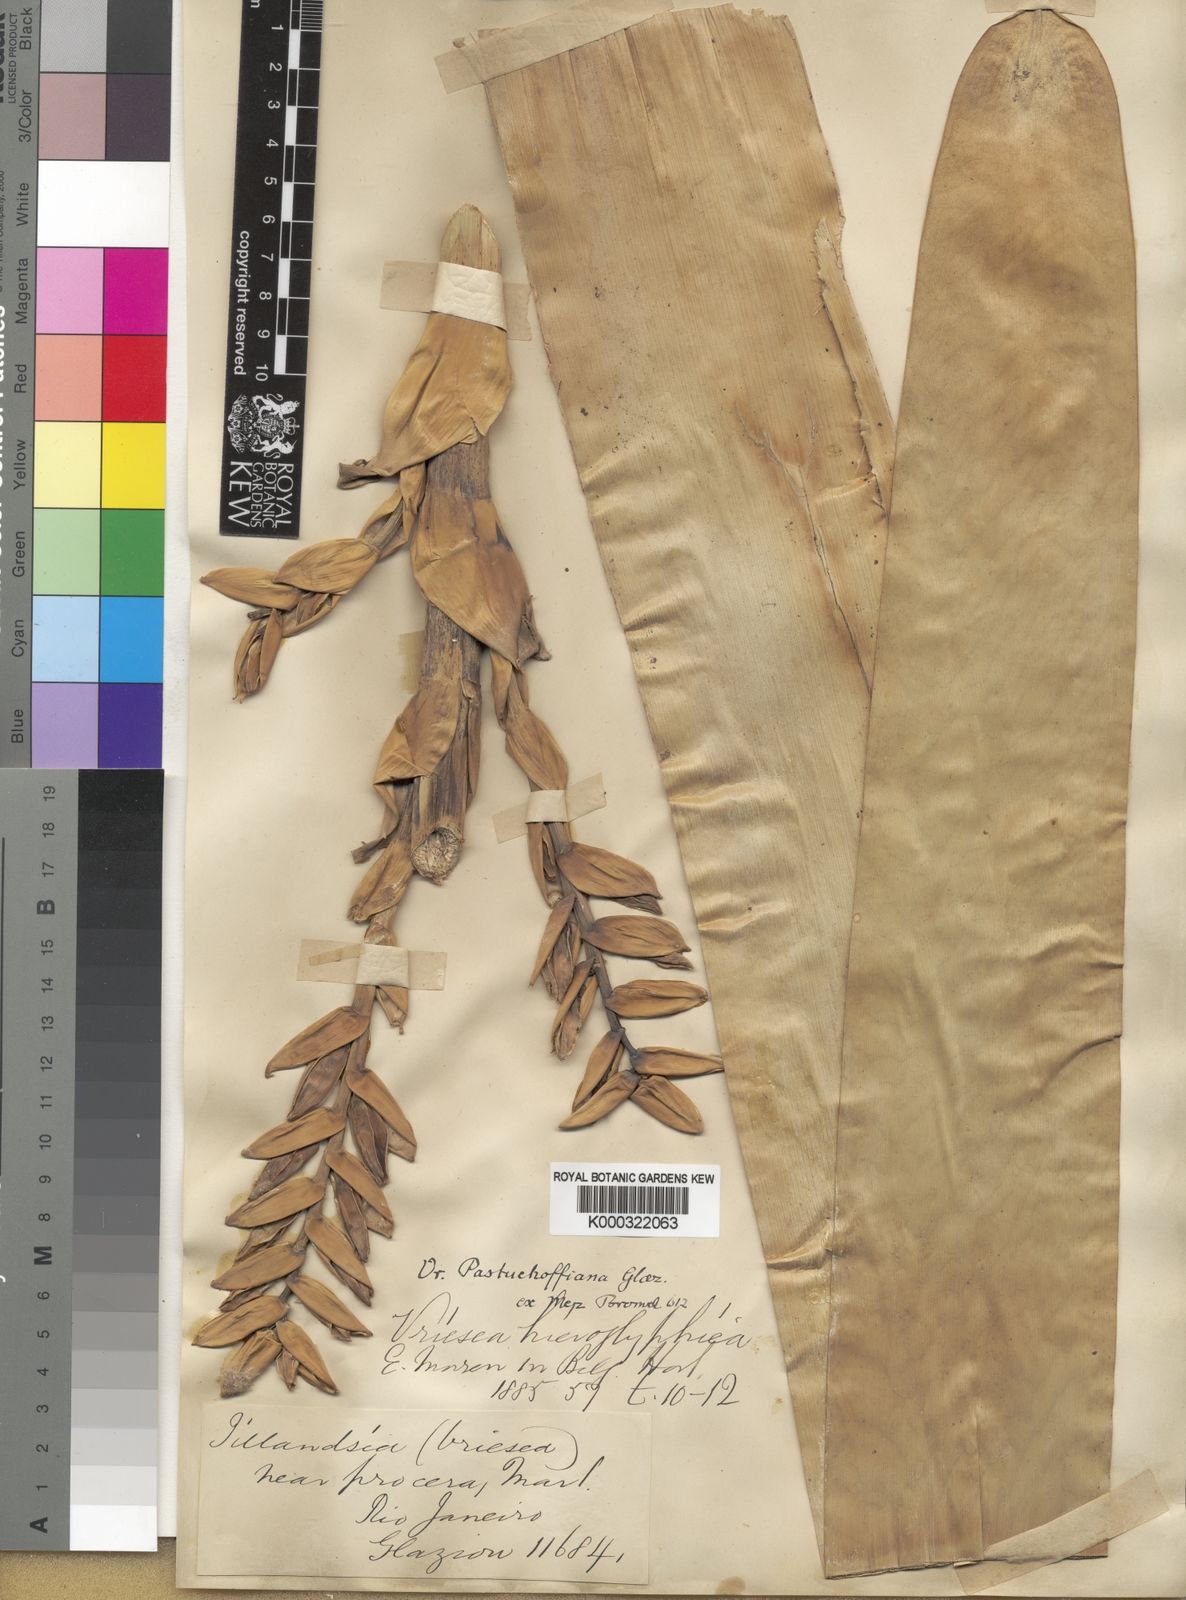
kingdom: Plantae
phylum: Tracheophyta
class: Liliopsida
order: Poales
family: Bromeliaceae
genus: Vriesea
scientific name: Vriesea pastuchoffiana
